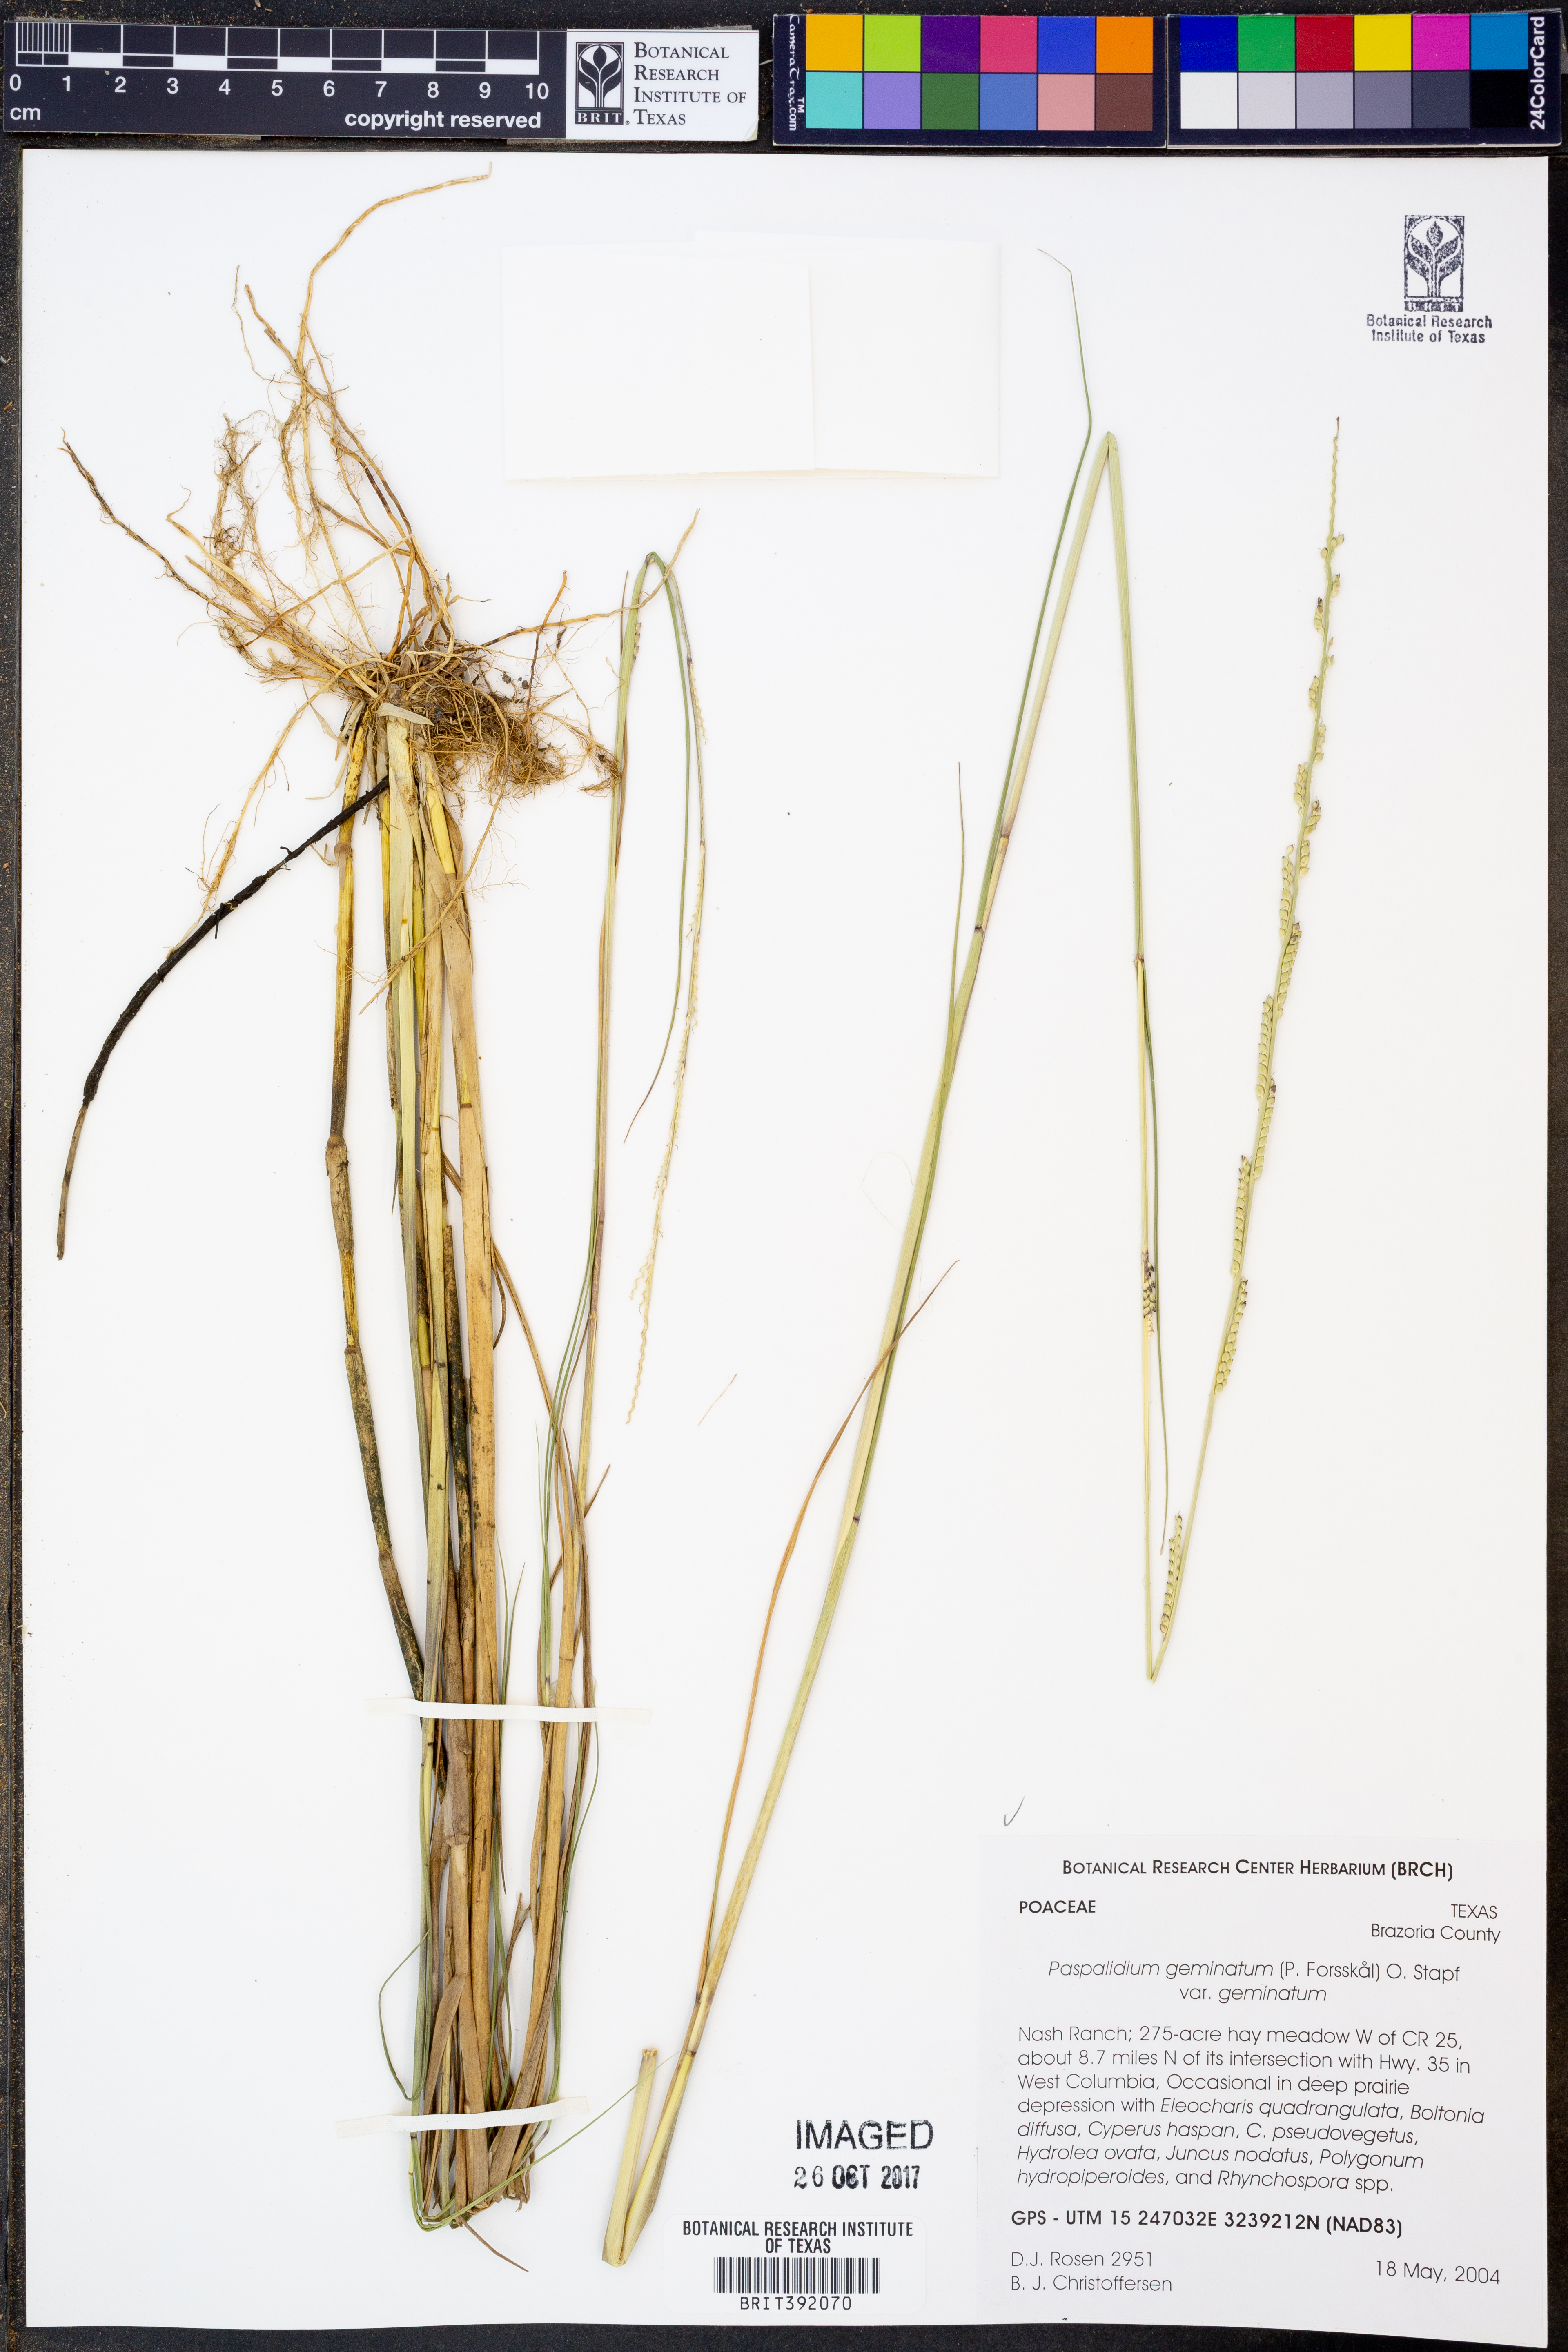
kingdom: Plantae
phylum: Tracheophyta
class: Liliopsida
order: Poales
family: Poaceae
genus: Setaria
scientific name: Setaria geminata
